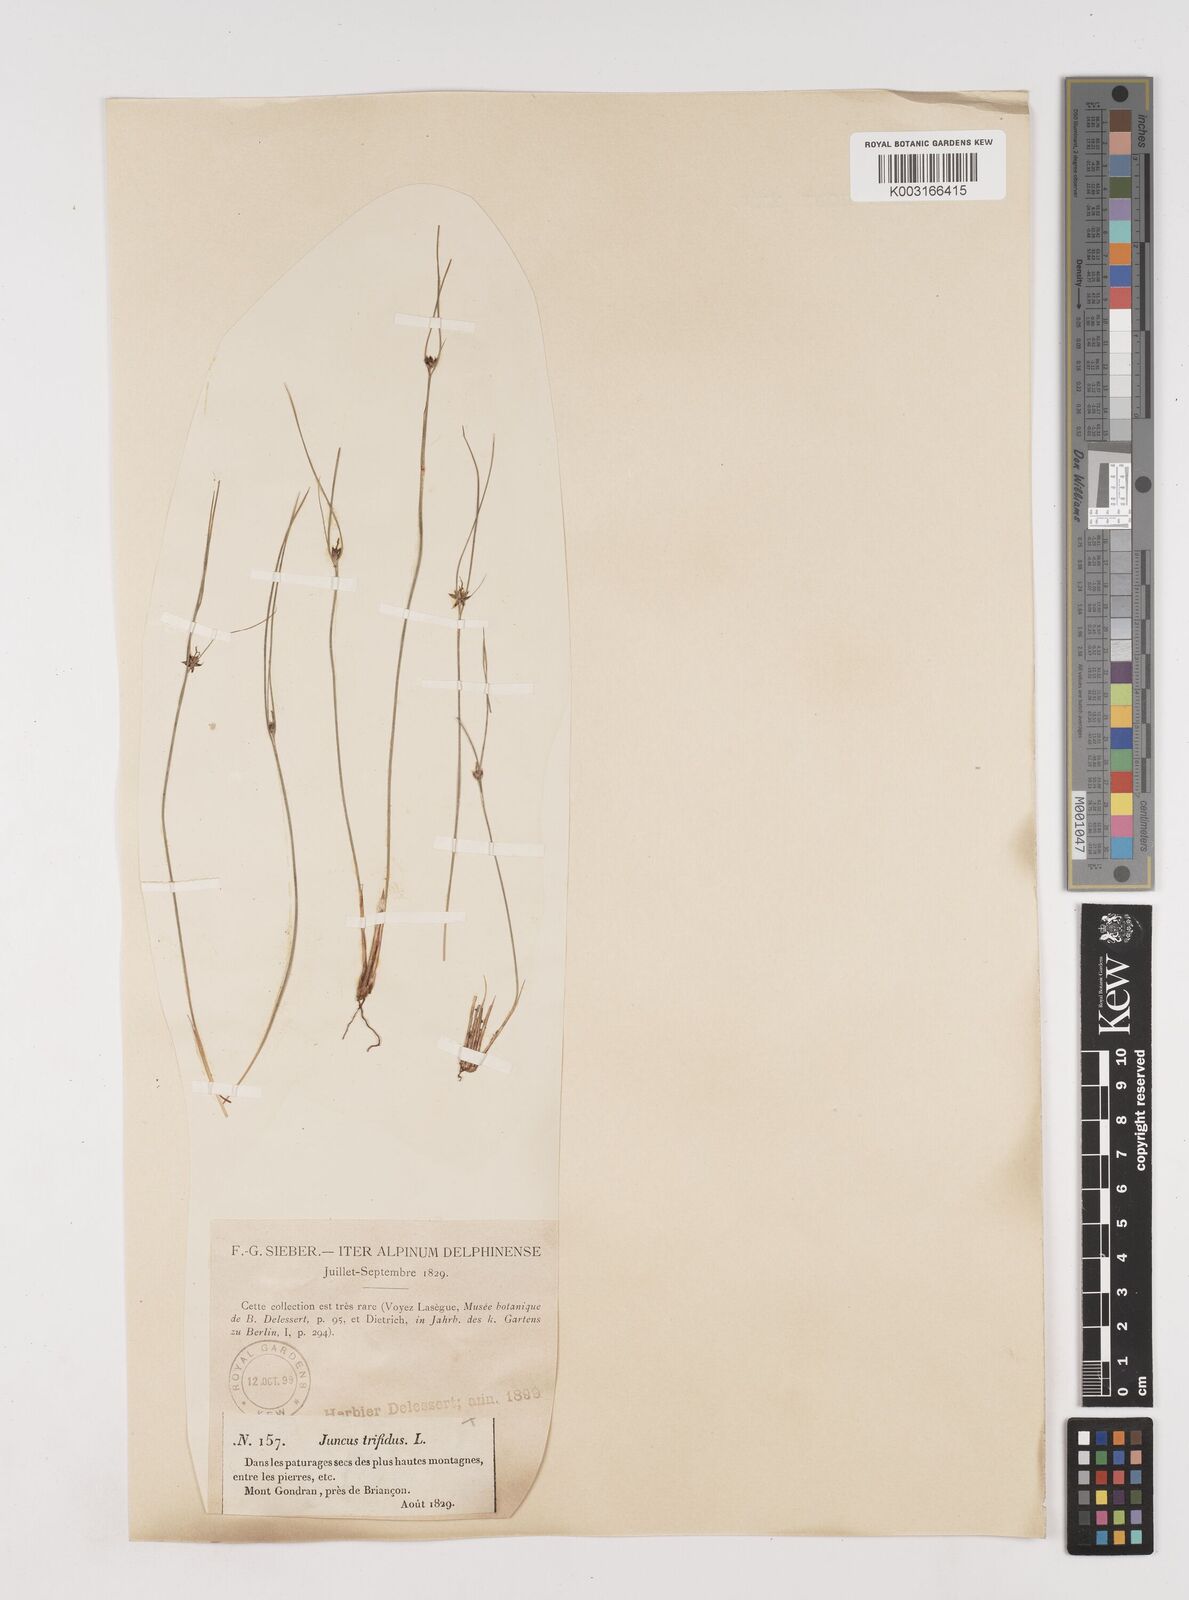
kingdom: Plantae
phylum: Tracheophyta
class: Liliopsida
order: Poales
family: Juncaceae
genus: Oreojuncus
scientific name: Oreojuncus trifidus
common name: Highland rush
